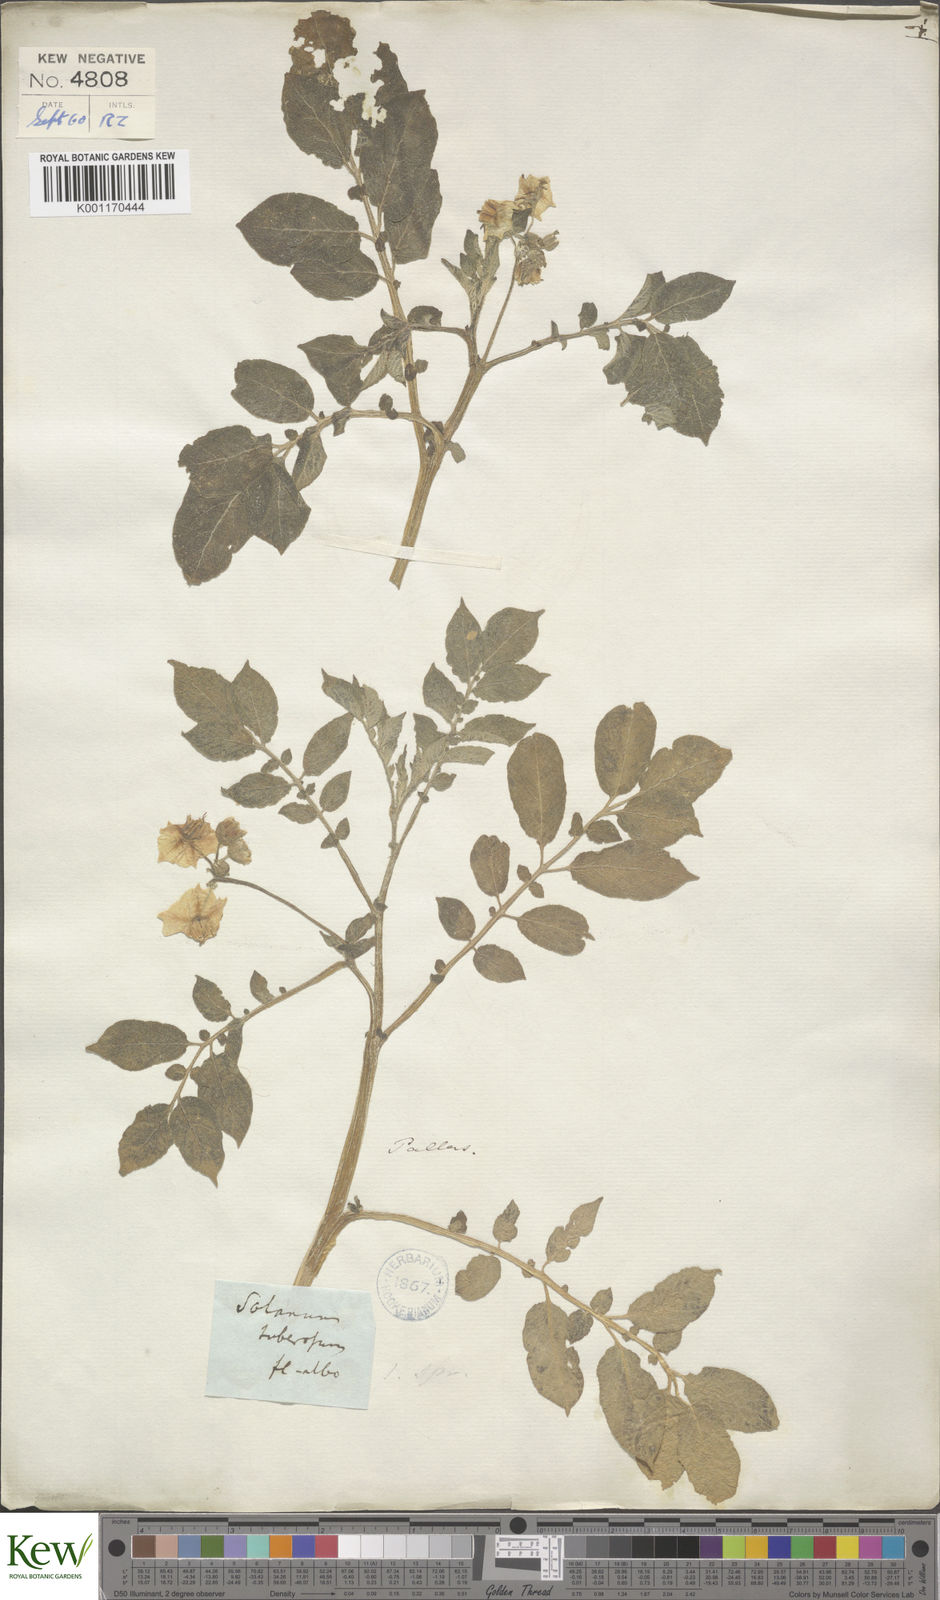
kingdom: Plantae
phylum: Tracheophyta
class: Magnoliopsida
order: Solanales
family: Solanaceae
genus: Solanum
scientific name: Solanum tuberosum
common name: Potato
